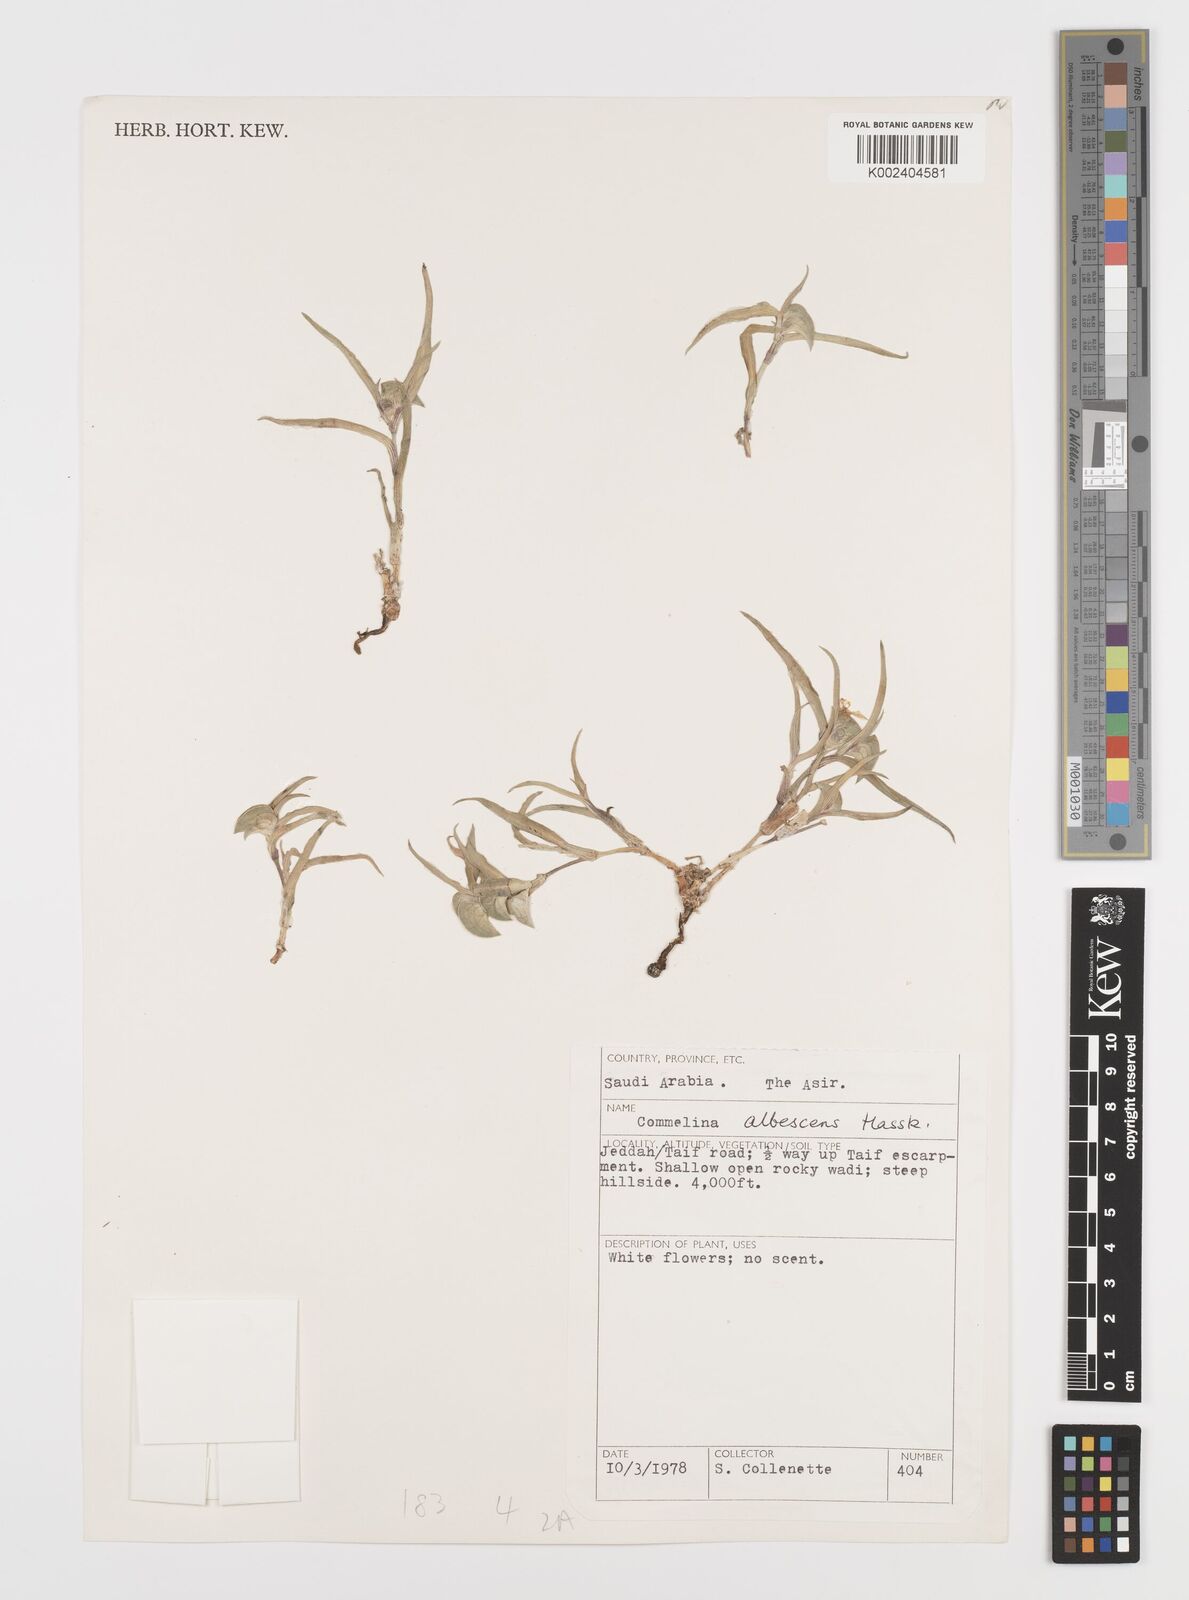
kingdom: Plantae
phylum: Tracheophyta
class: Liliopsida
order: Commelinales
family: Commelinaceae
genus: Commelina
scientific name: Commelina albescens
